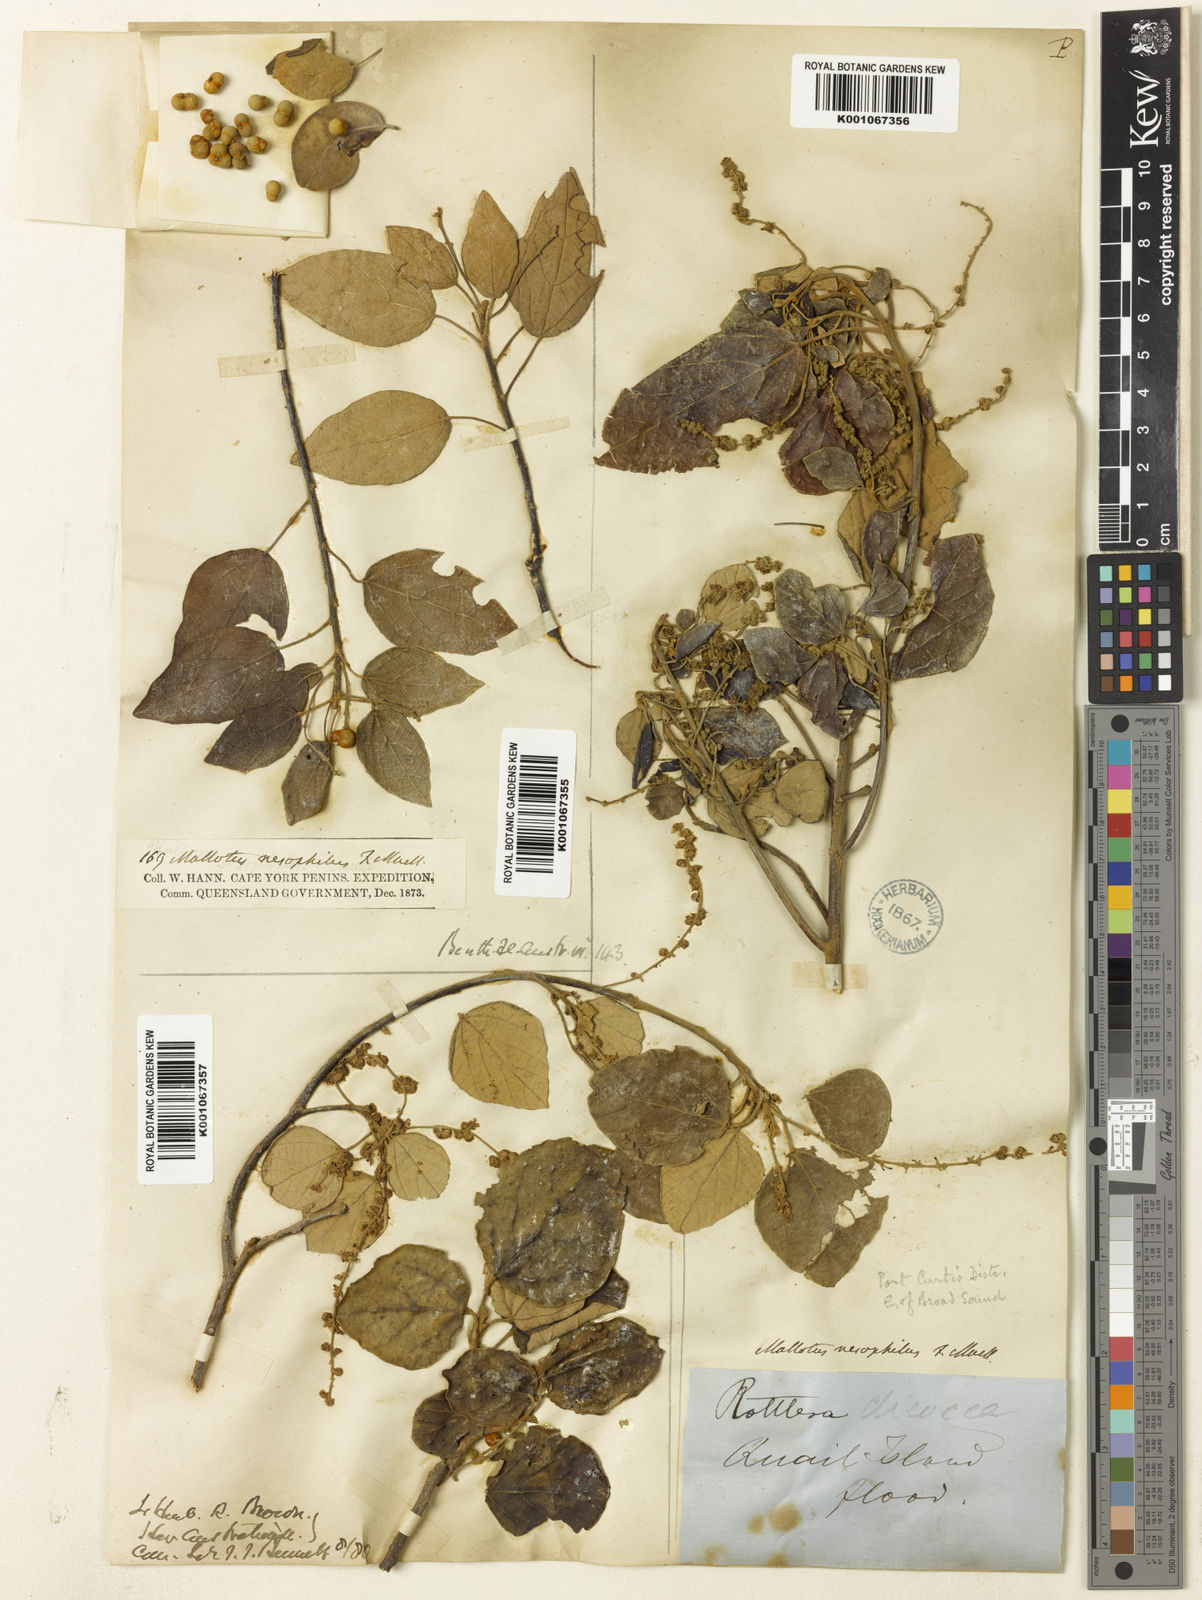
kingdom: Plantae
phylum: Tracheophyta
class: Magnoliopsida
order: Malpighiales
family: Euphorbiaceae
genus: Mallotus
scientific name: Mallotus
